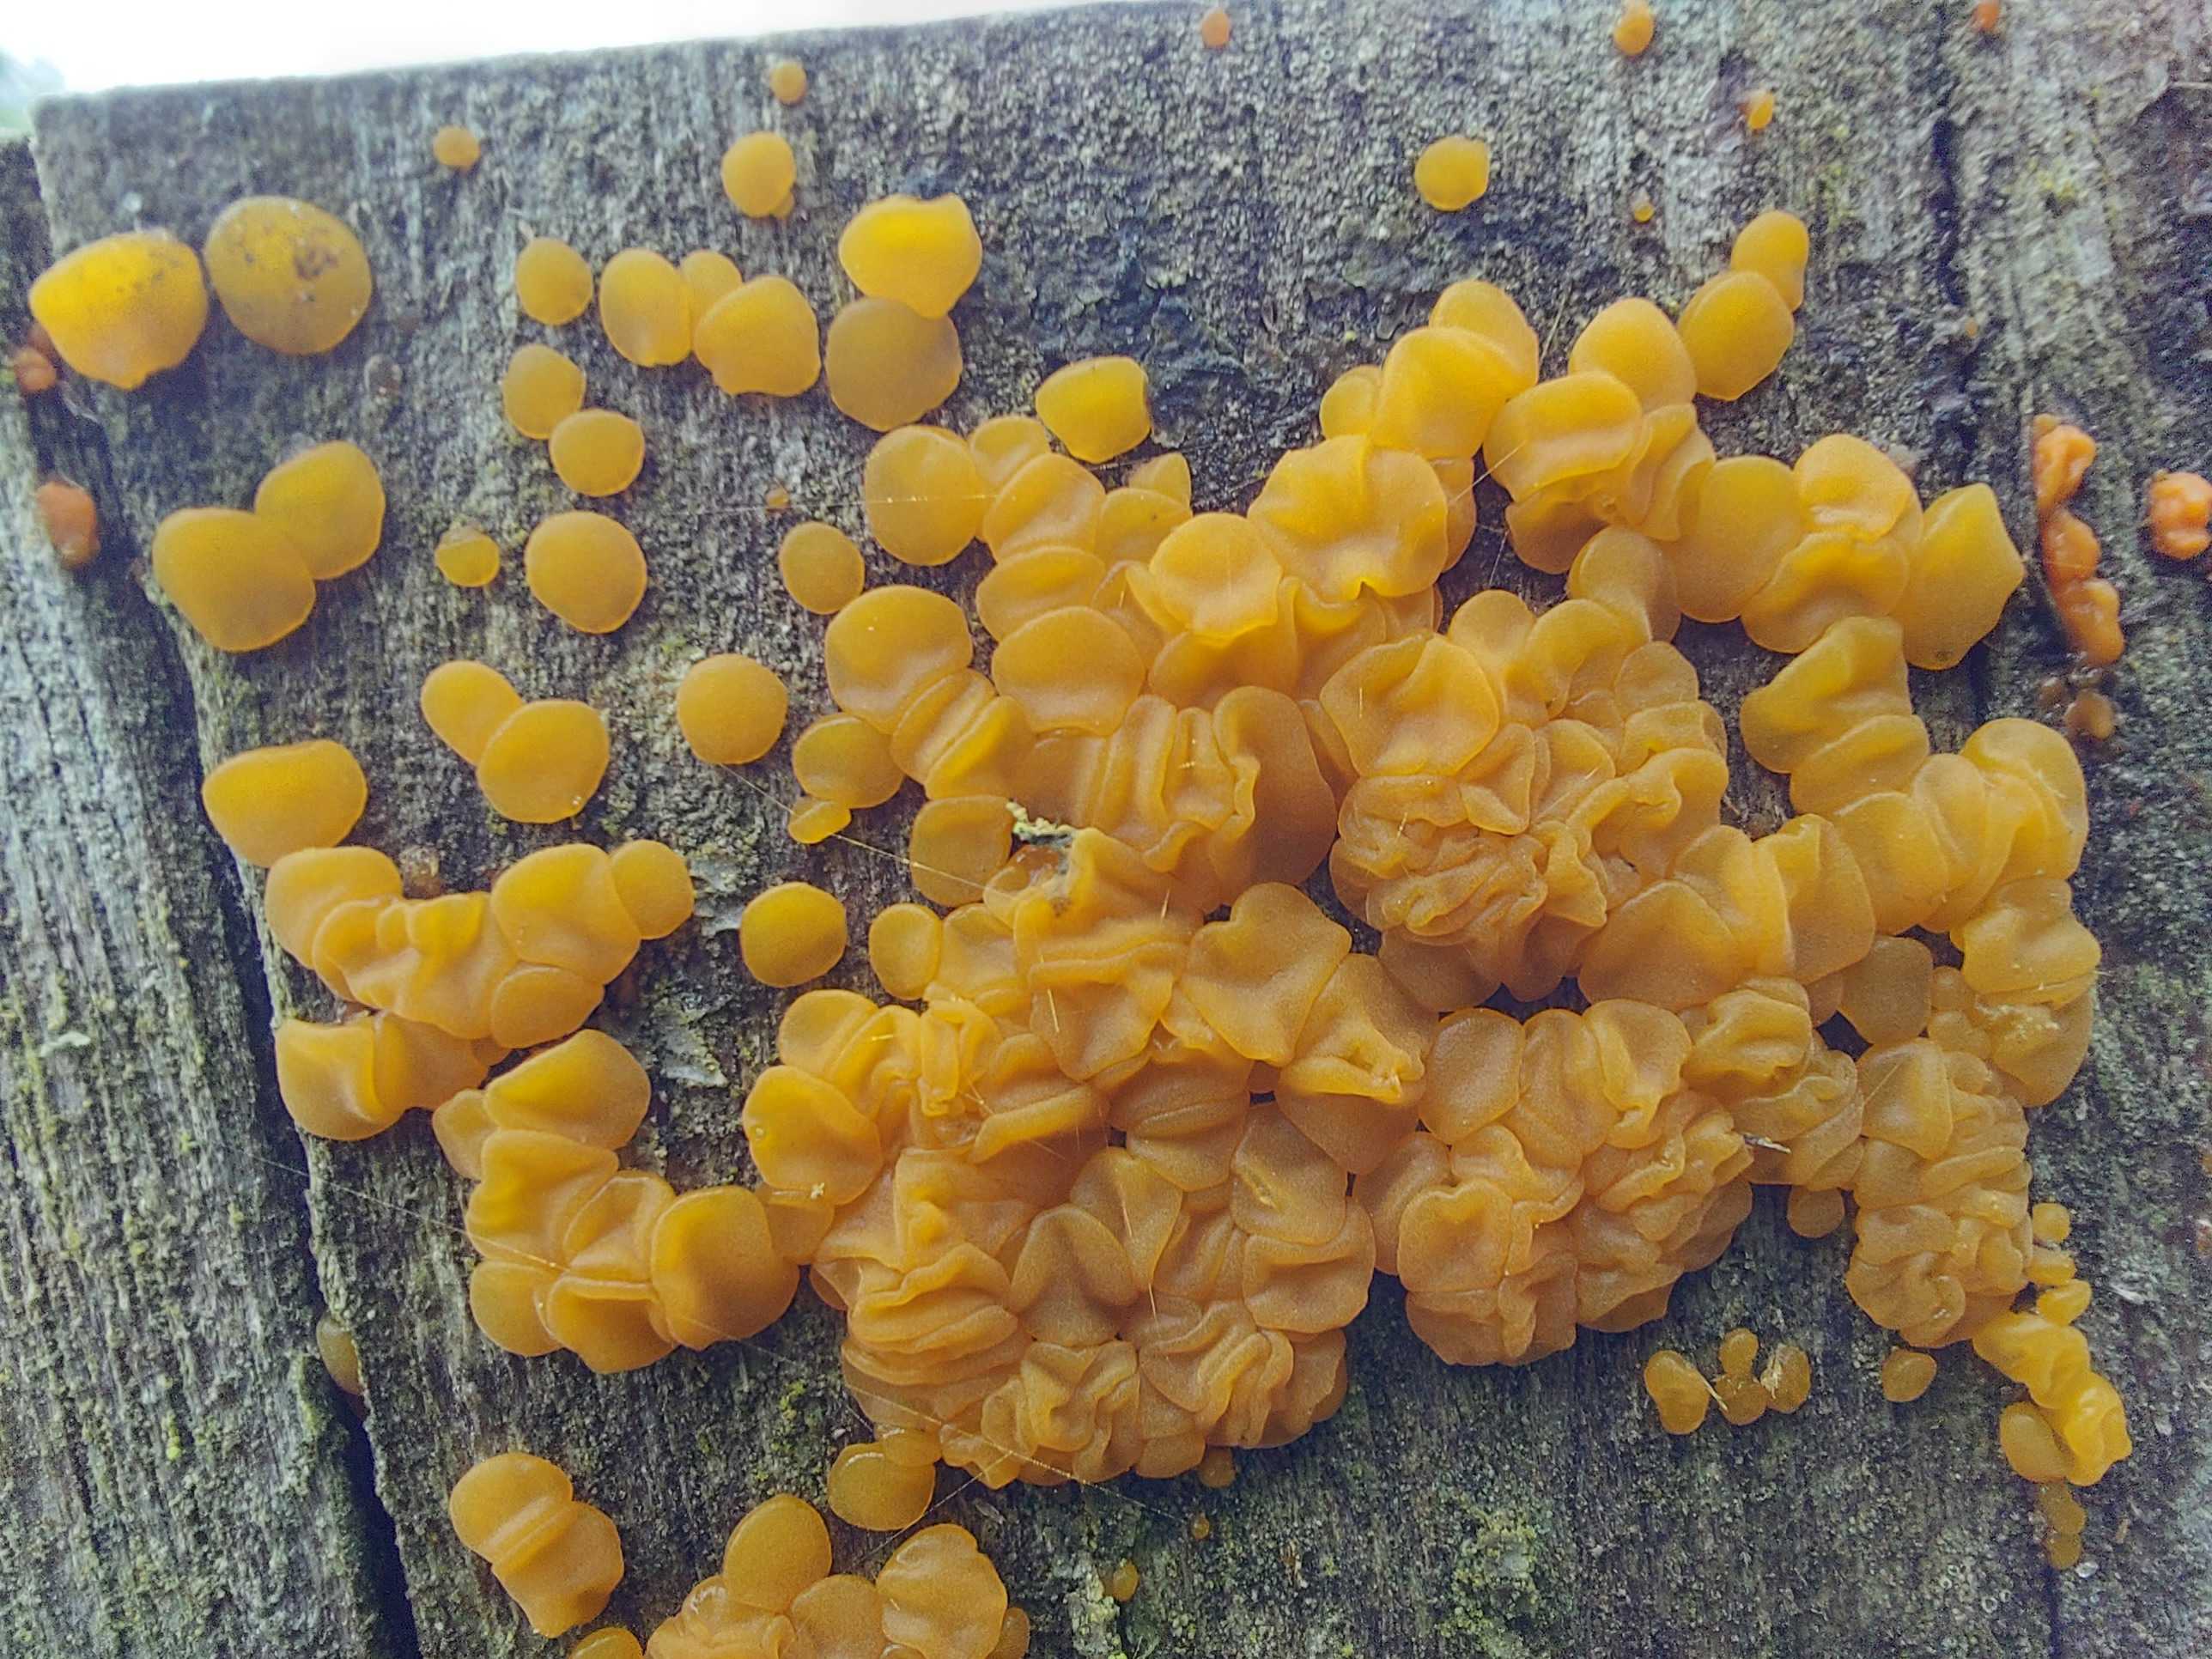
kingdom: Fungi
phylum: Basidiomycota
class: Dacrymycetes
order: Dacrymycetales
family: Dacrymycetaceae
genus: Dacrymyces
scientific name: Dacrymyces stillatus
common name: almindelig tåresvamp
